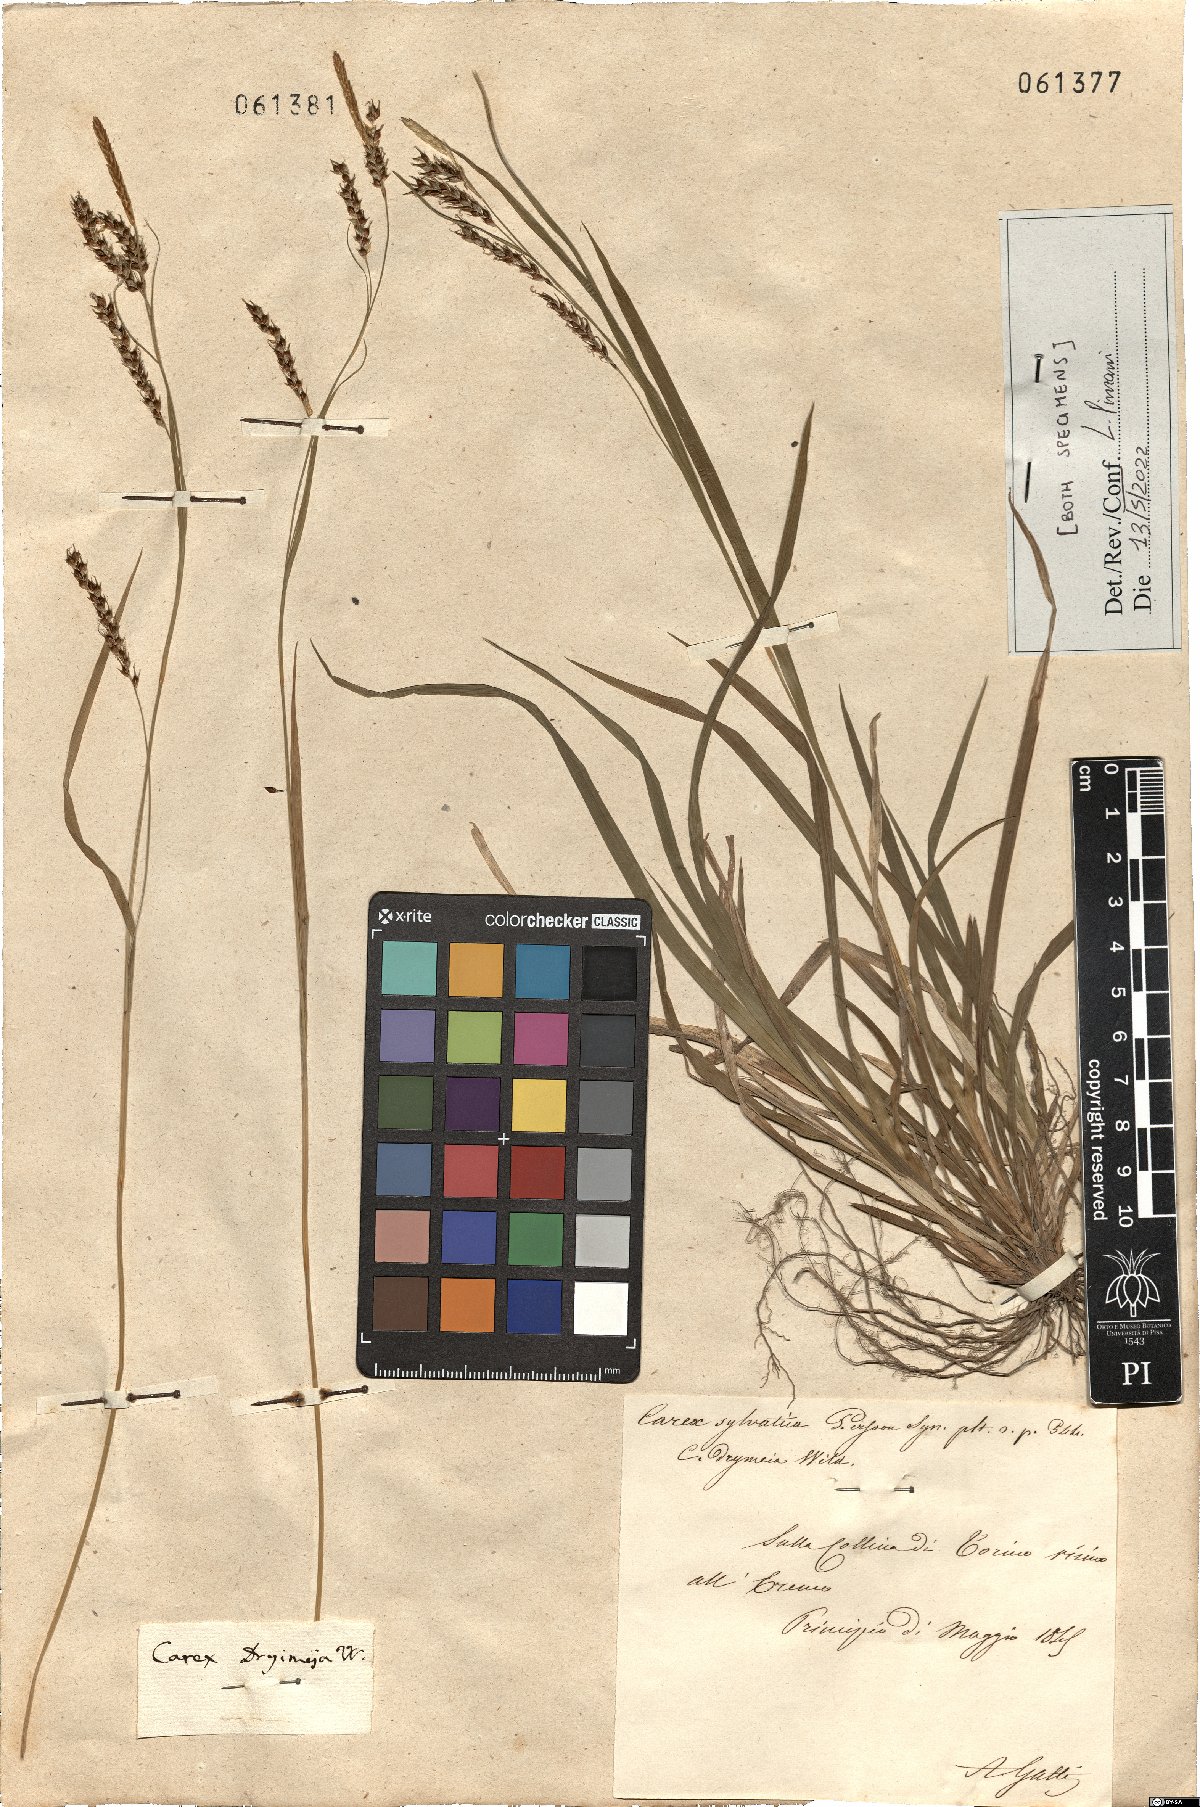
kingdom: Plantae
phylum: Tracheophyta
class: Liliopsida
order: Poales
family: Cyperaceae
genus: Carex
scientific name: Carex sylvatica
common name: Wood-sedge
